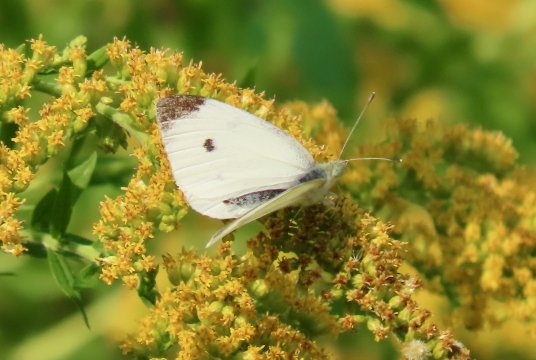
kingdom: Animalia
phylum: Arthropoda
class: Insecta
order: Lepidoptera
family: Pieridae
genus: Pieris
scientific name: Pieris rapae
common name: Cabbage White
